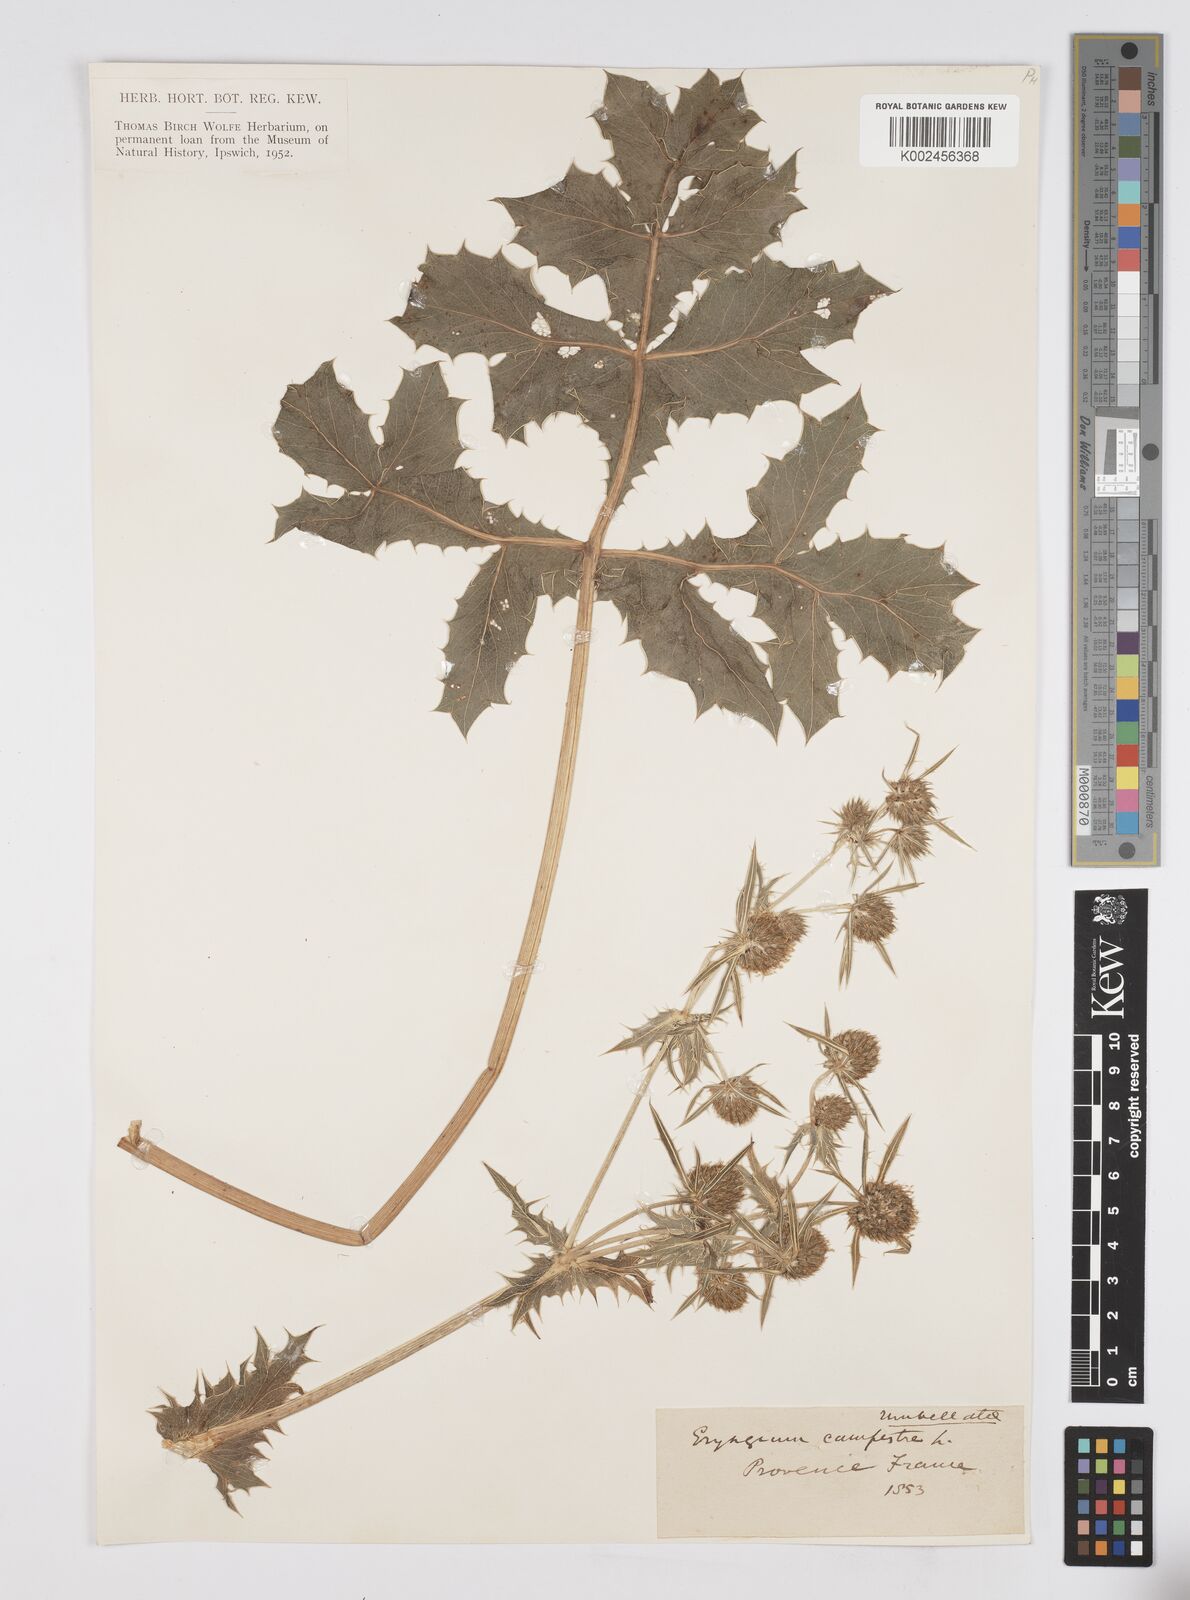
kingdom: Plantae
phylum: Tracheophyta
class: Magnoliopsida
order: Apiales
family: Apiaceae
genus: Eryngium
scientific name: Eryngium campestre
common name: Field eryngo
